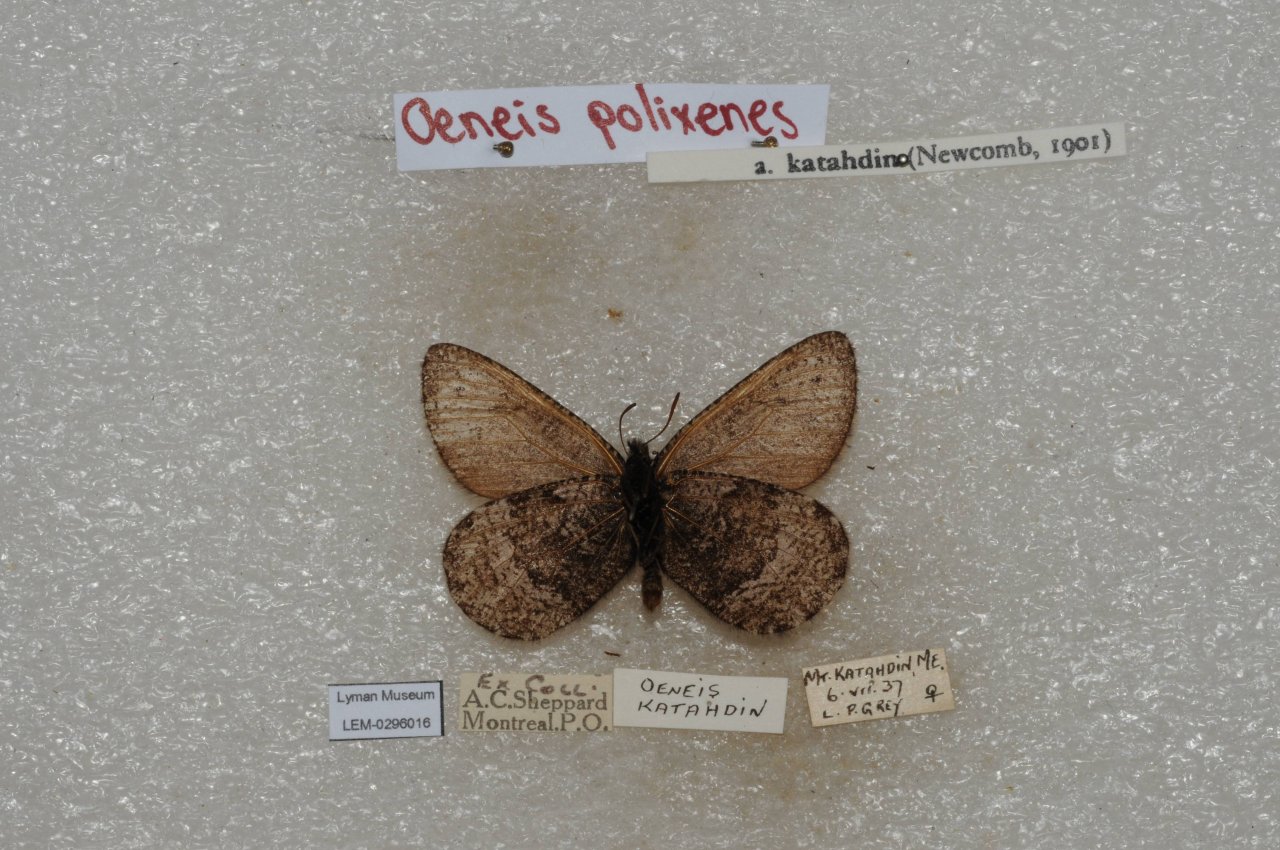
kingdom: Animalia
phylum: Arthropoda
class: Insecta
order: Lepidoptera
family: Nymphalidae
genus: Oeneis
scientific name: Oeneis bore
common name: Polixenes Arctic
